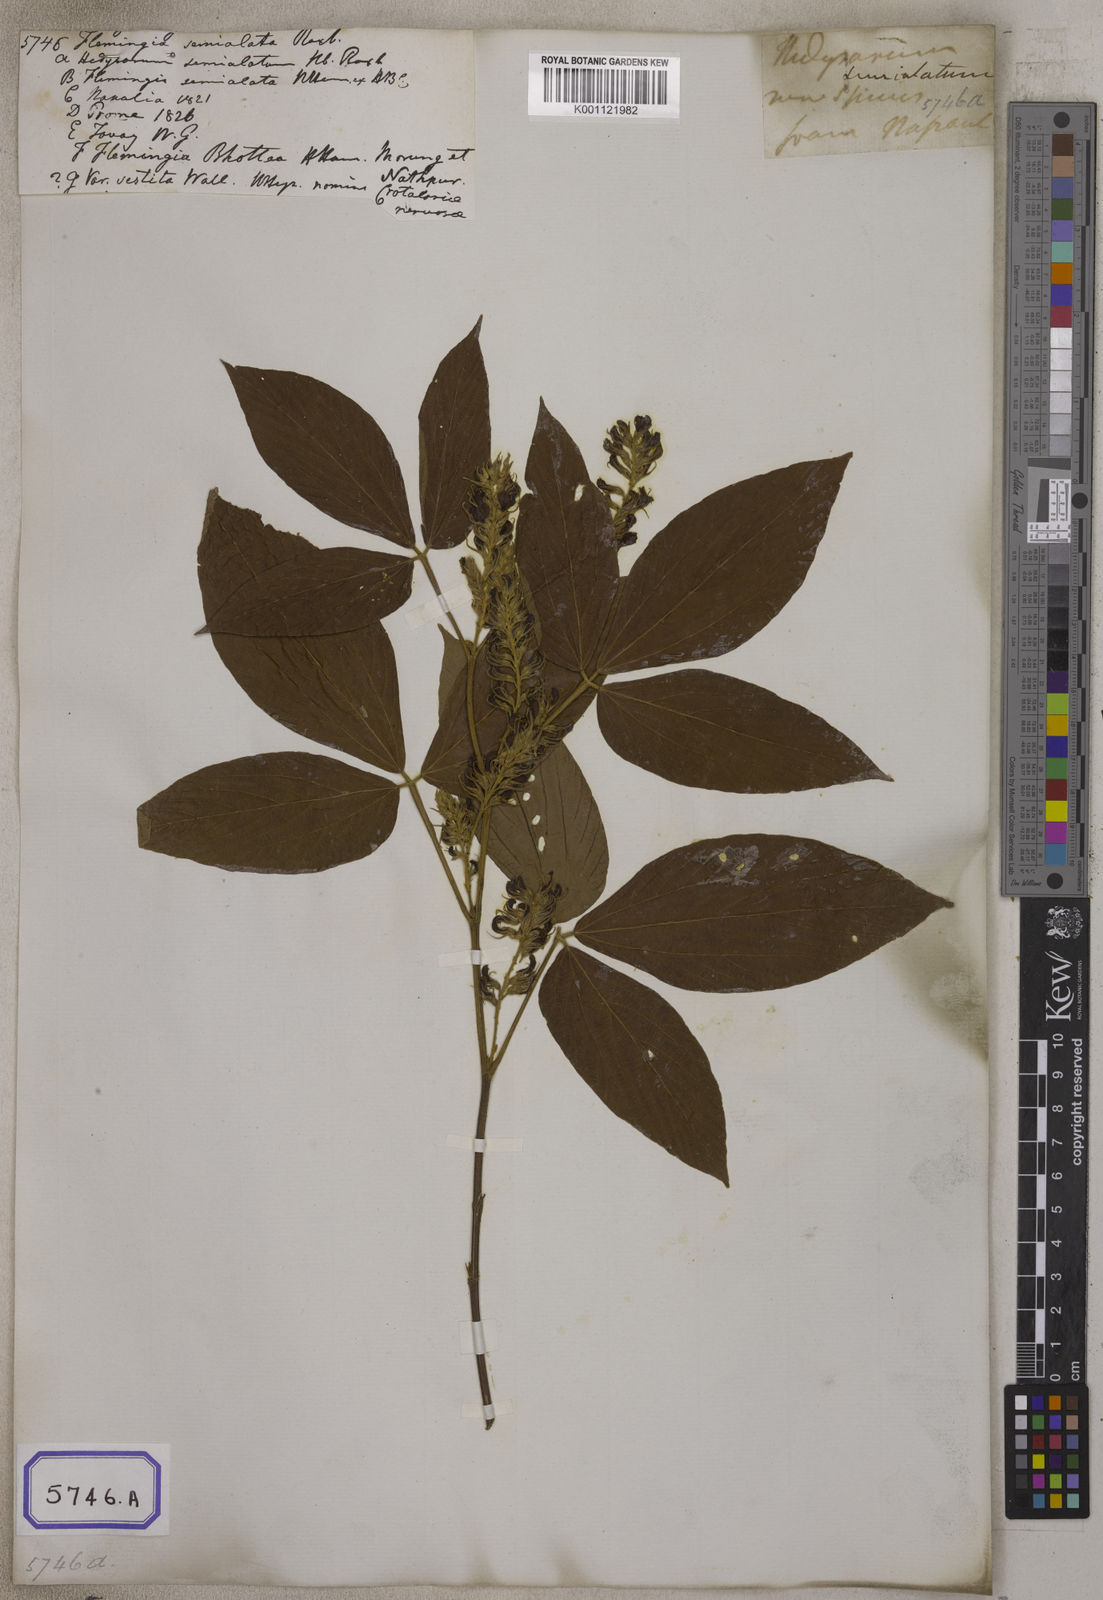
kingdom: Plantae
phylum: Tracheophyta
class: Magnoliopsida
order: Fabales
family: Fabaceae
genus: Flemingia
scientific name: Flemingia
